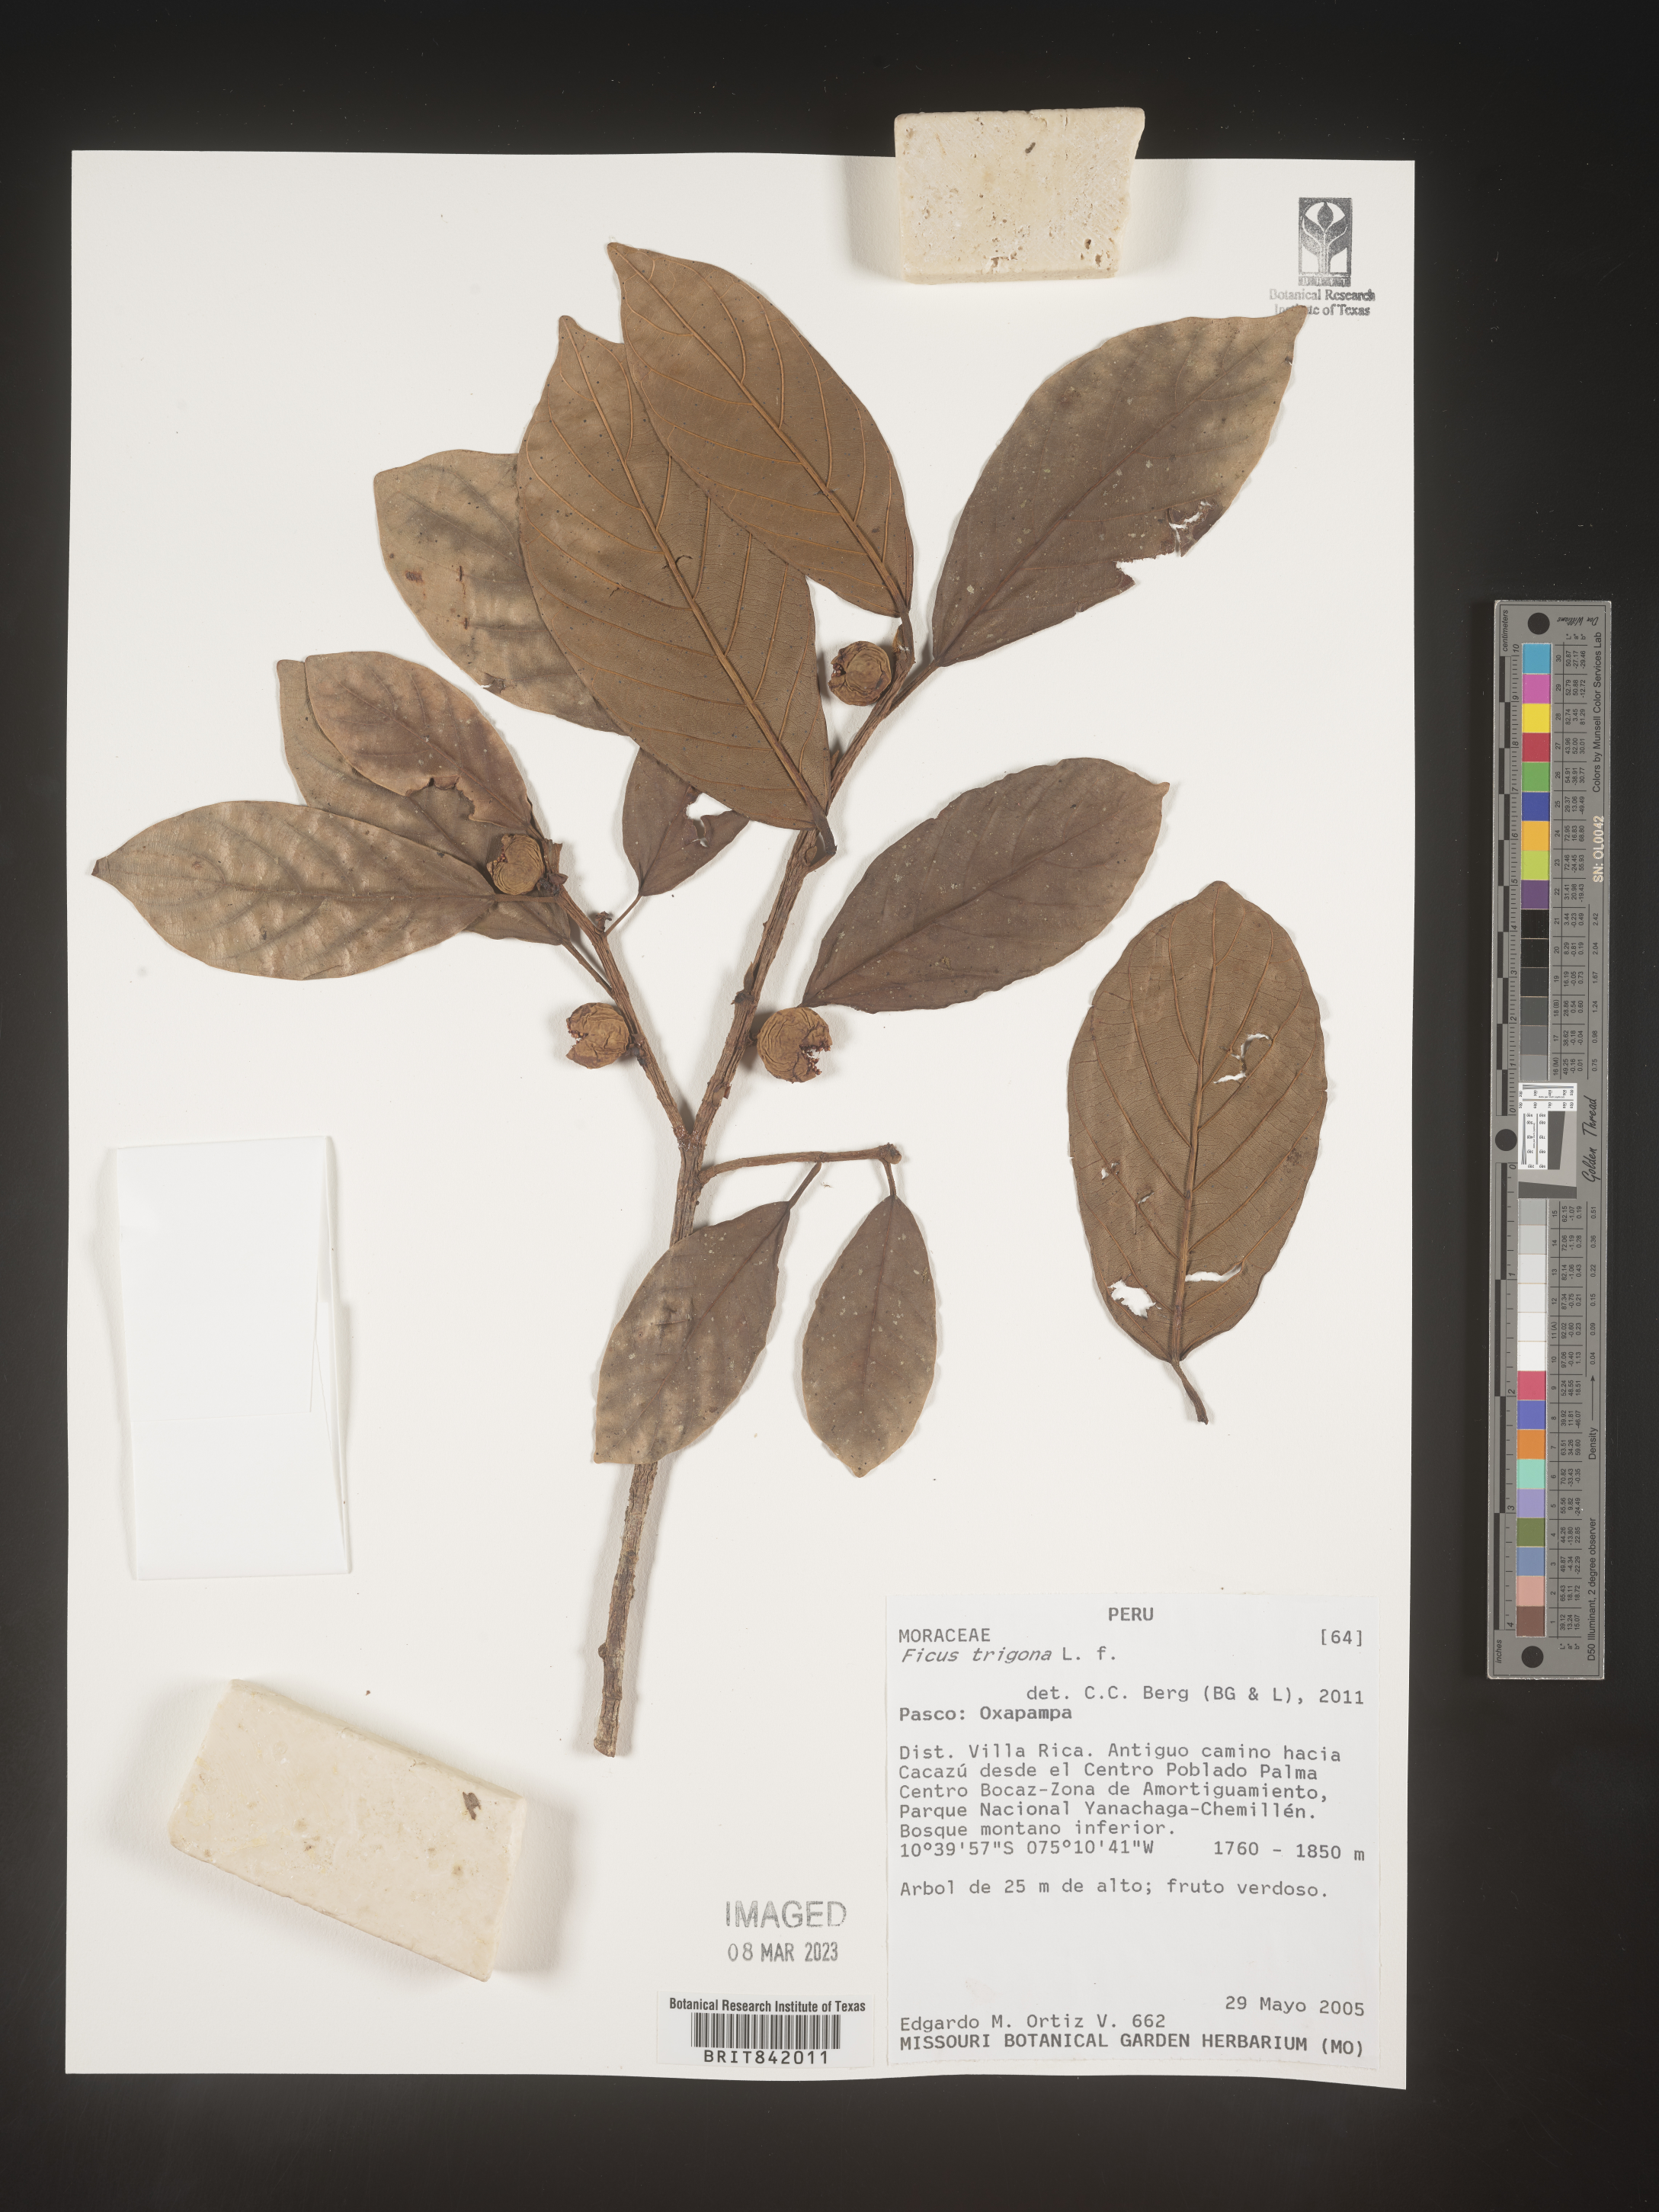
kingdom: Plantae
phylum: Tracheophyta
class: Magnoliopsida
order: Rosales
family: Moraceae
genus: Ficus
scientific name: Ficus trigona
